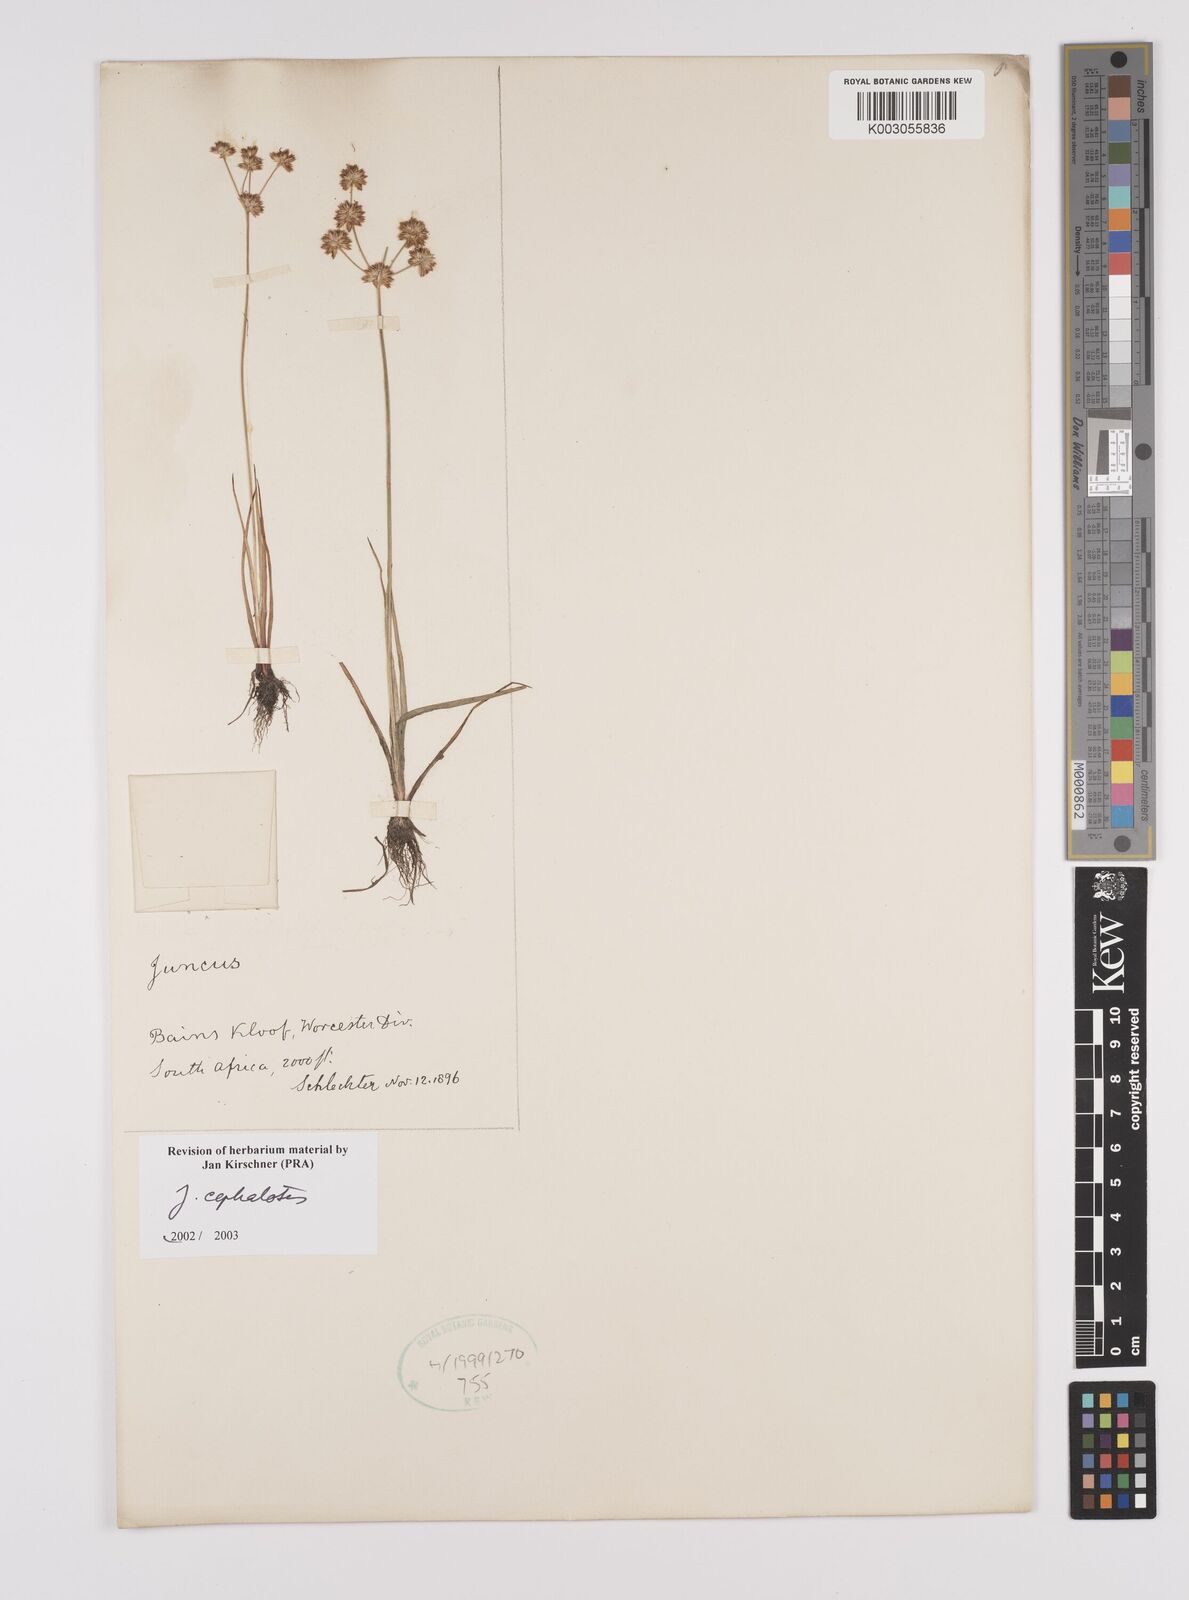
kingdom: Plantae
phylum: Tracheophyta
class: Liliopsida
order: Poales
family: Juncaceae
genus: Juncus
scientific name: Juncus cephalotes
